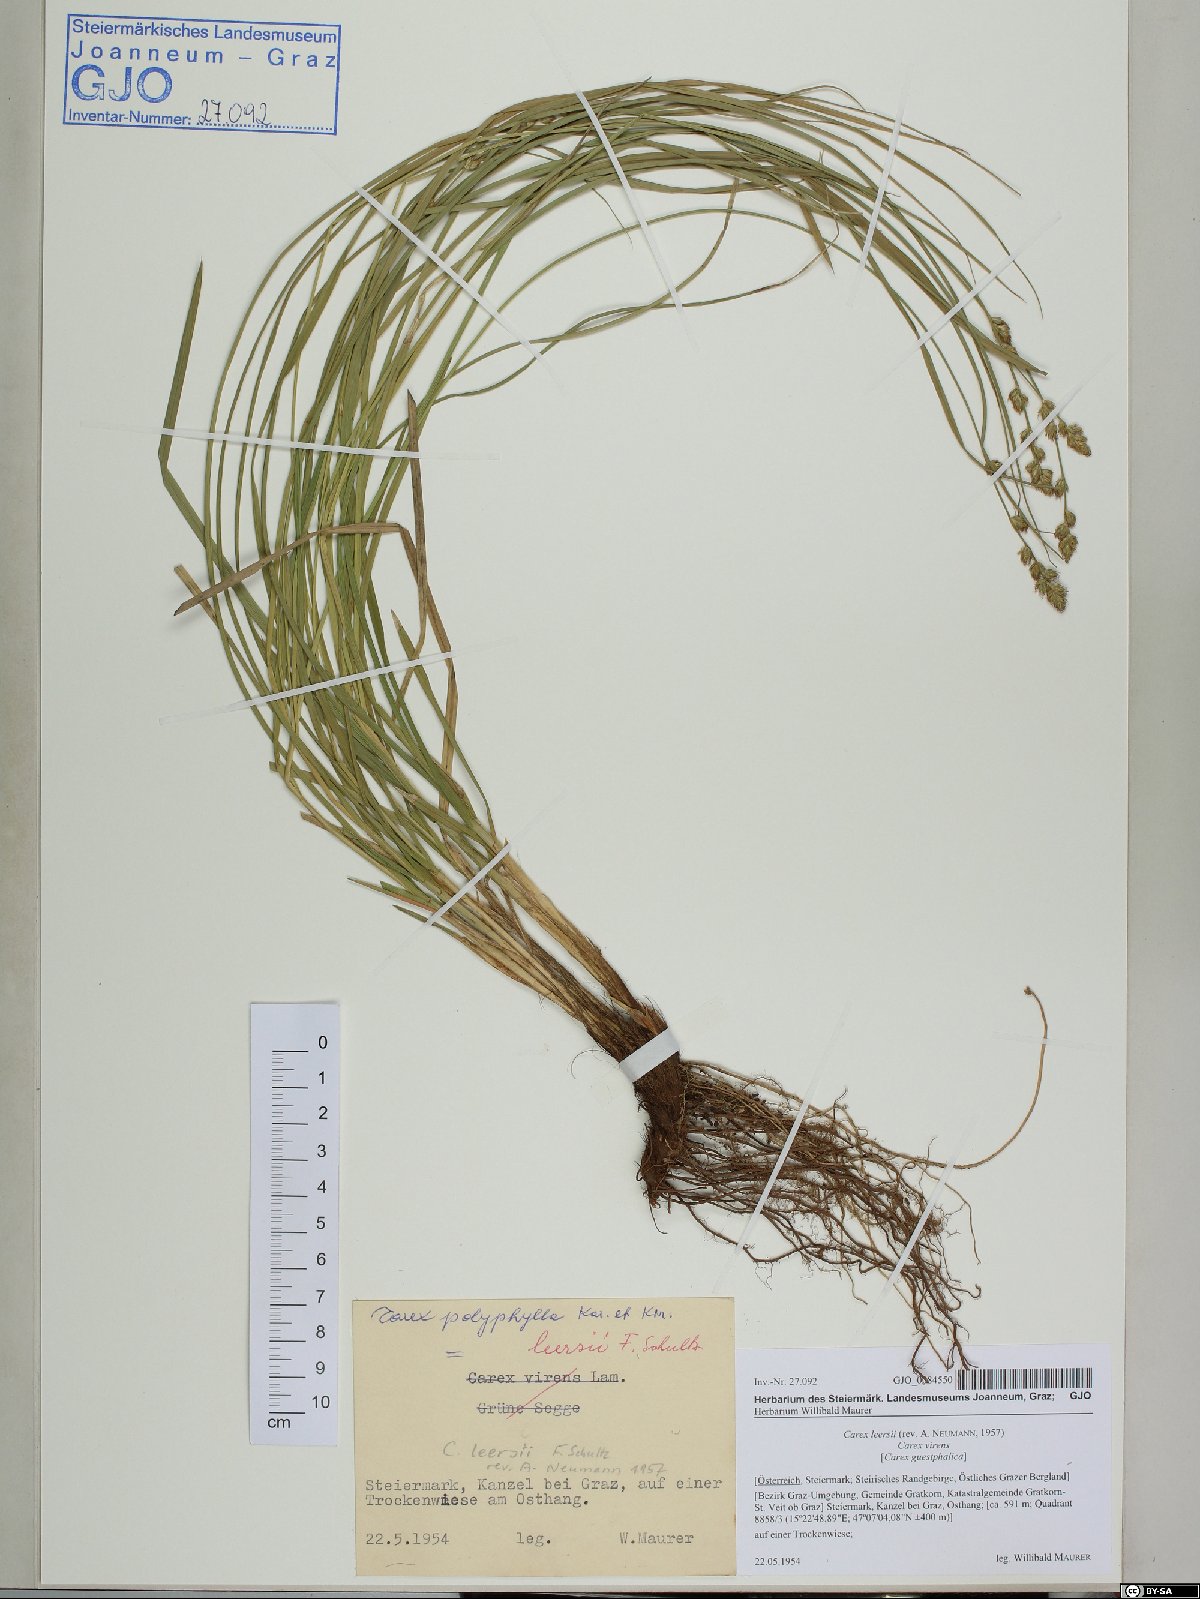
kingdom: Plantae
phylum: Tracheophyta
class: Liliopsida
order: Poales
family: Cyperaceae
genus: Carex
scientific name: Carex leersii
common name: Leers' sedge
